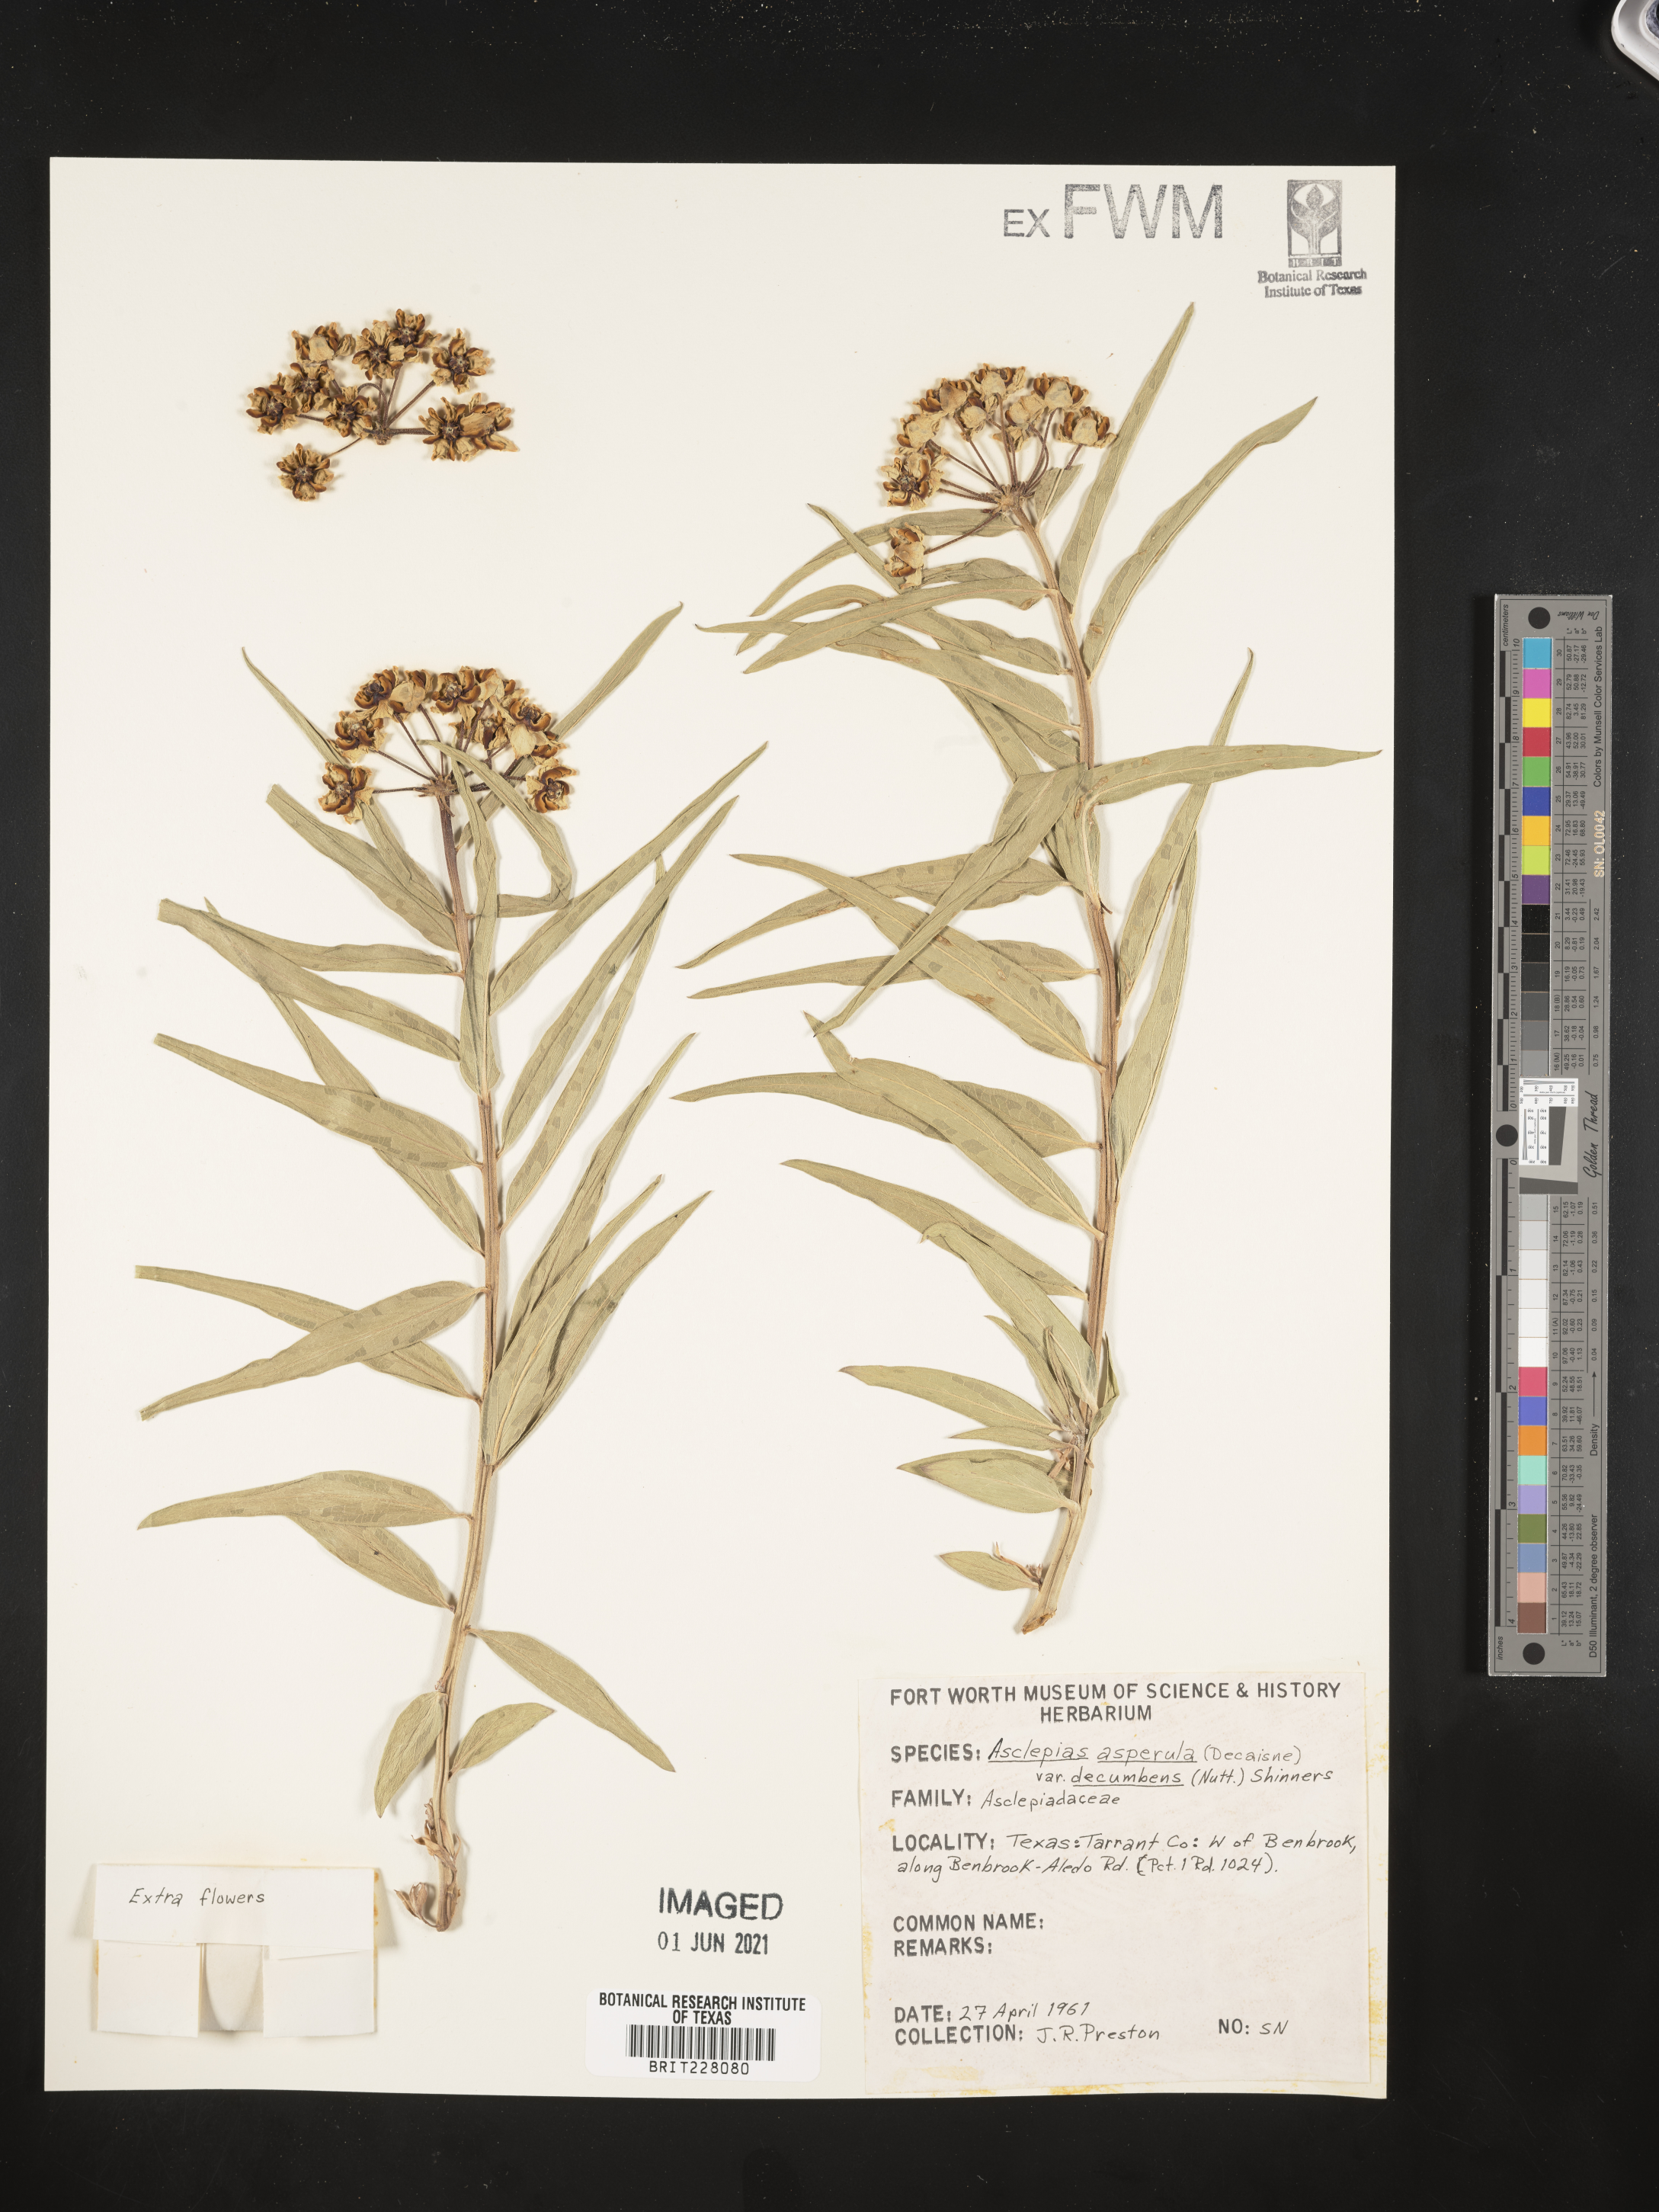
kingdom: Plantae
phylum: Tracheophyta
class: Magnoliopsida
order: Gentianales
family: Apocynaceae
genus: Asclepias
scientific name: Asclepias asperula
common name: Antelope horns
